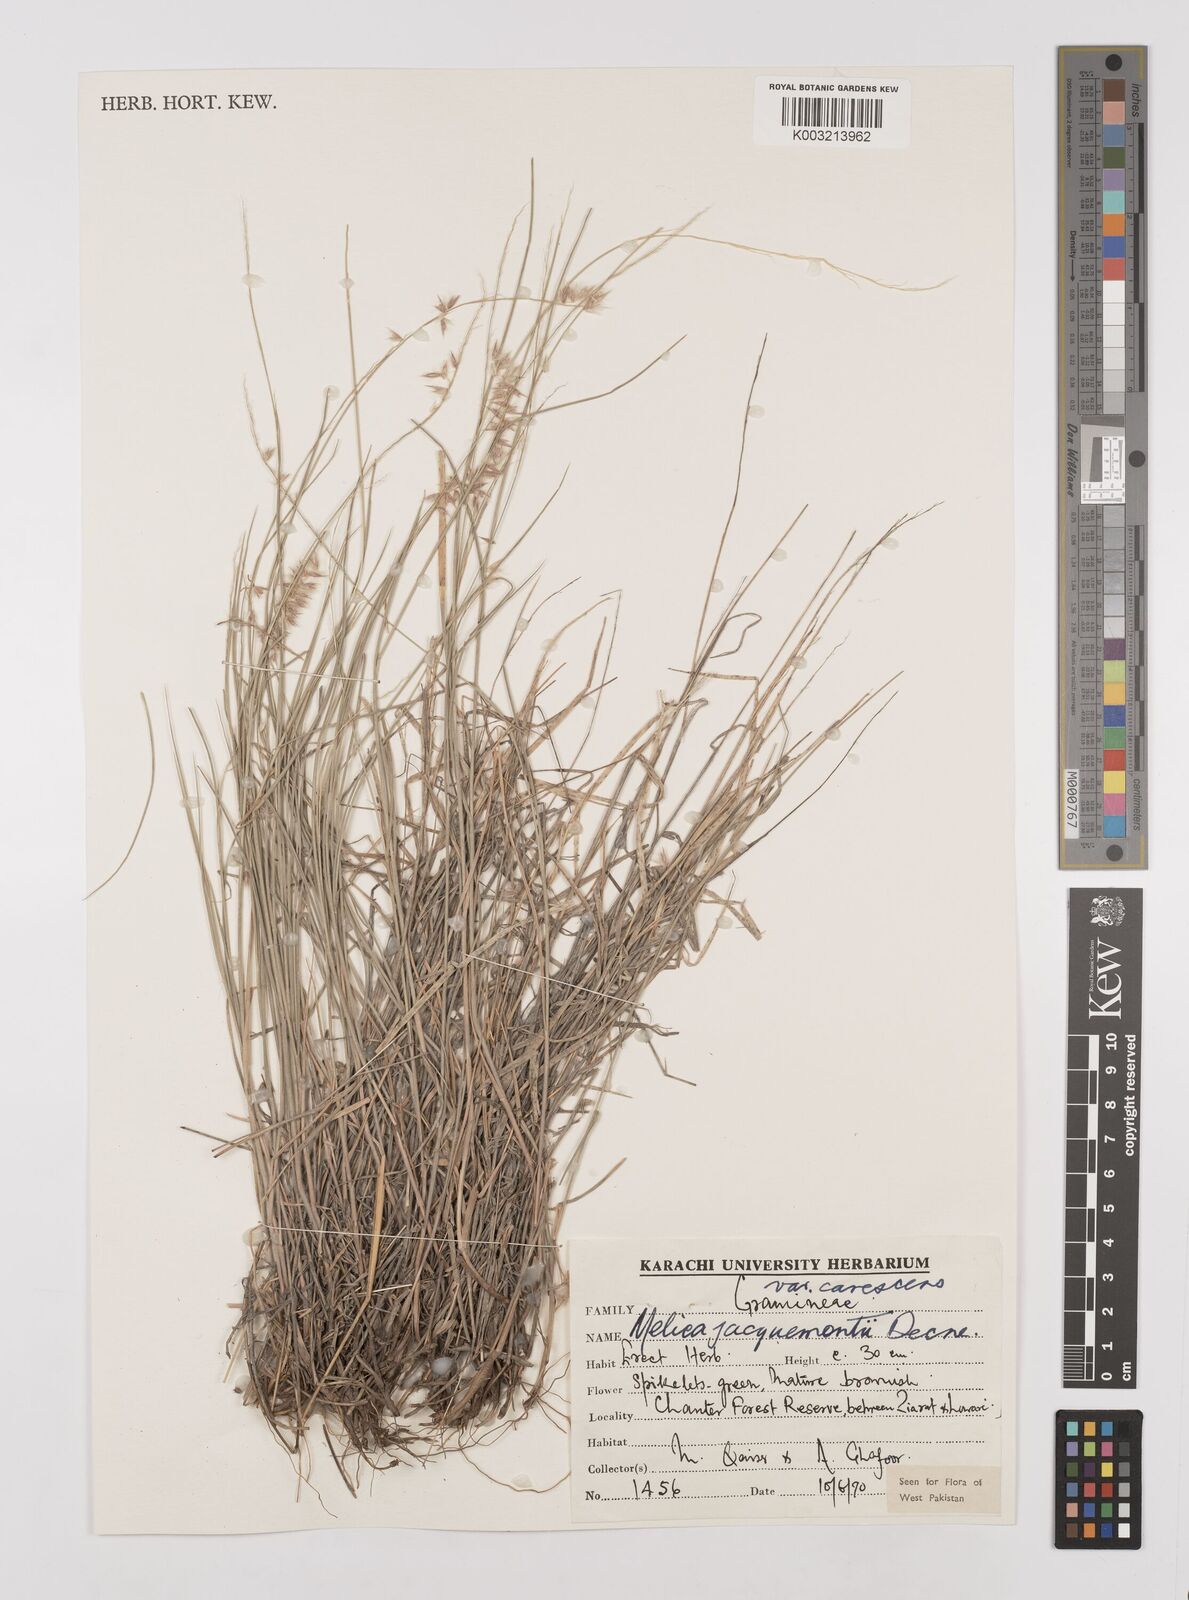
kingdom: Plantae
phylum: Tracheophyta
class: Liliopsida
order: Poales
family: Poaceae
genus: Melica
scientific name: Melica persica
